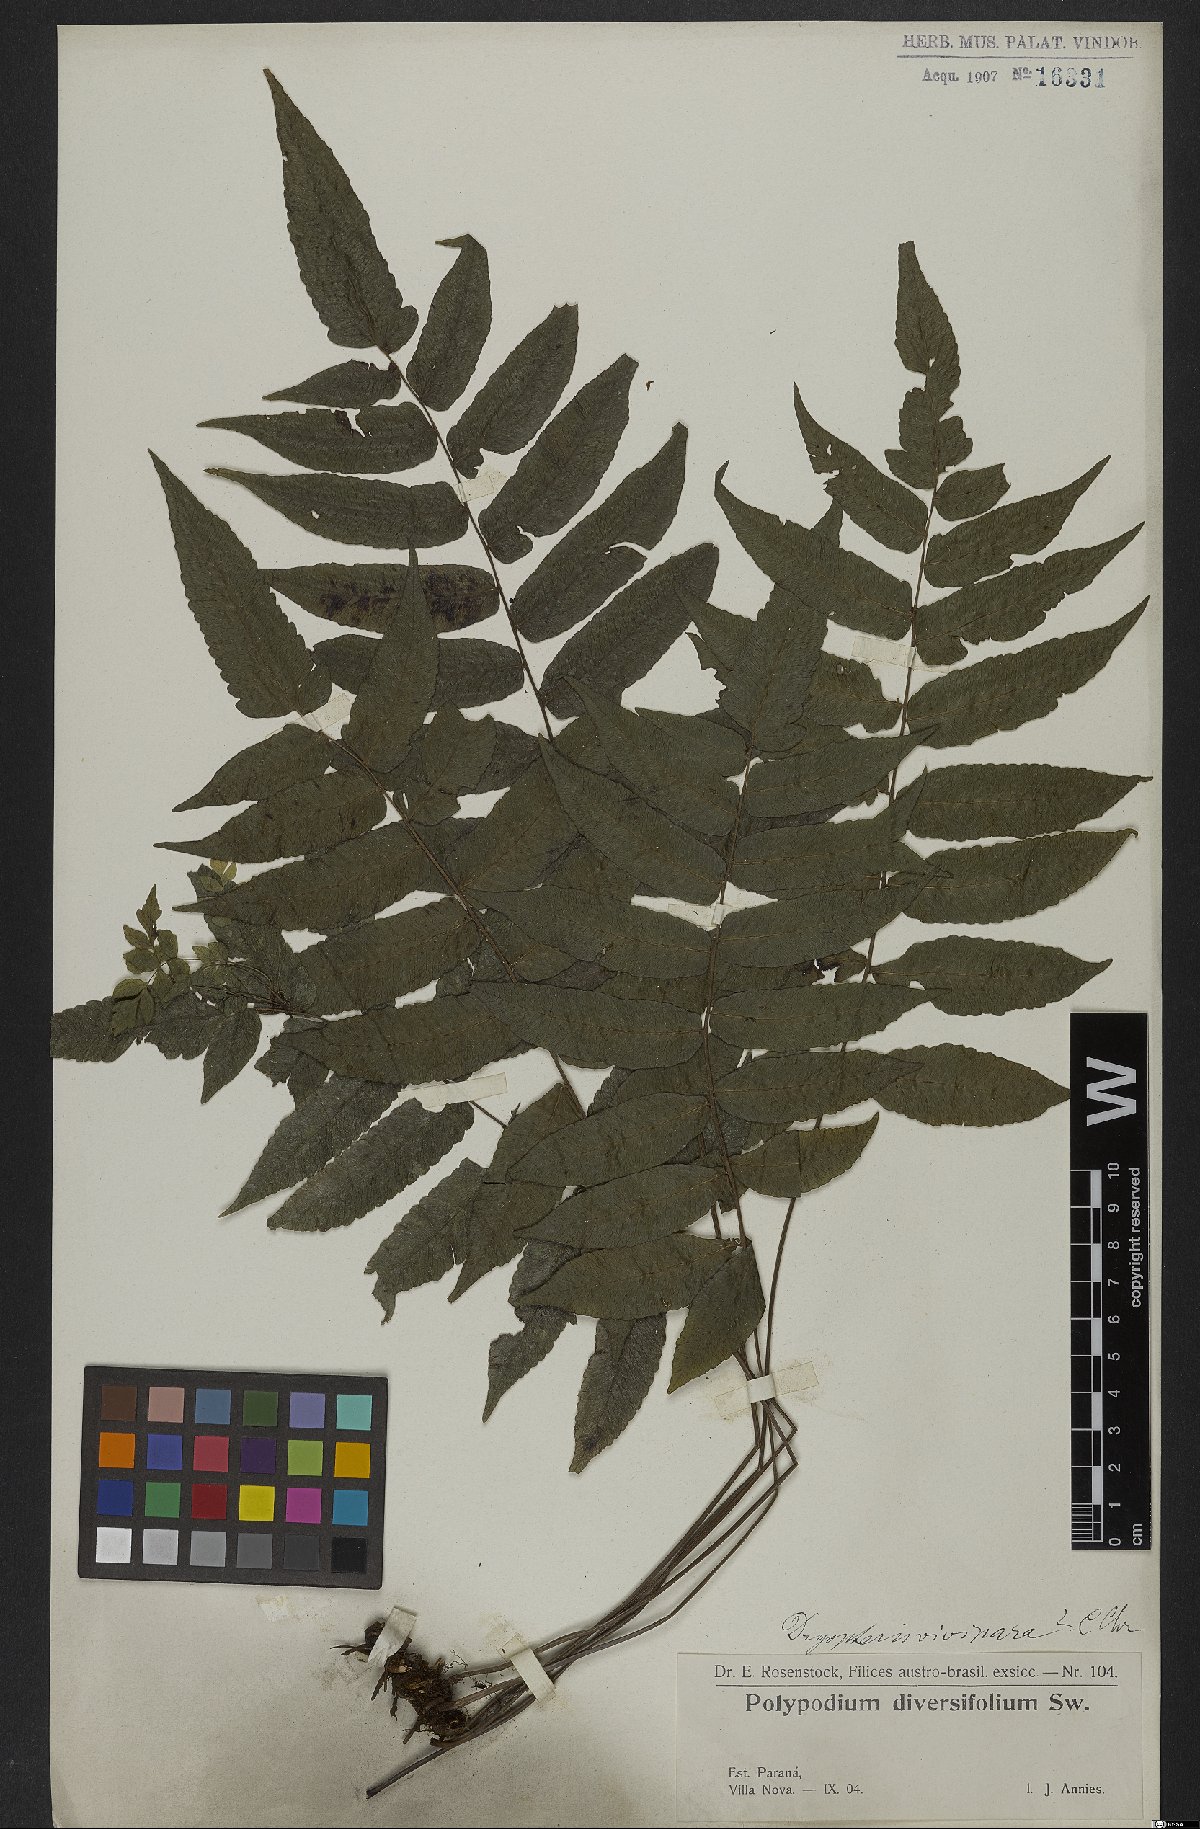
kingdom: Plantae
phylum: Tracheophyta
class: Polypodiopsida
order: Polypodiales
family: Thelypteridaceae
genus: Goniopteris
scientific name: Goniopteris vivipara
